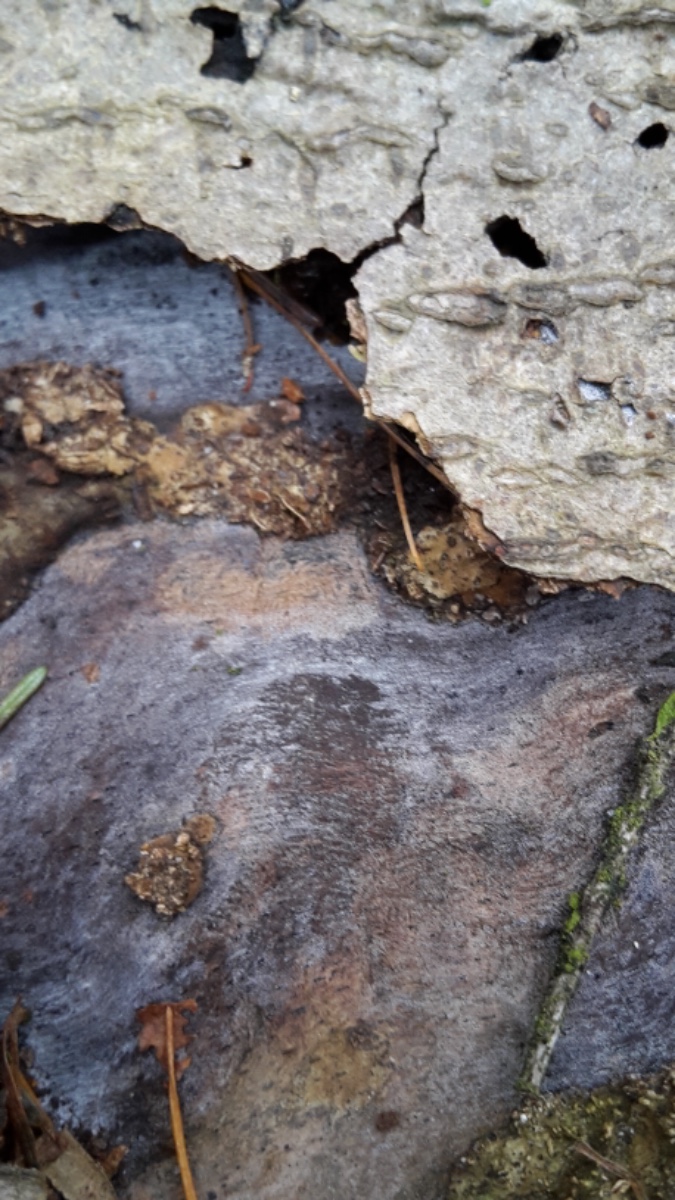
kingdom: Fungi
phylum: Basidiomycota
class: Tremellomycetes
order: Tremellales
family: Exidiaceae
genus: Exidiopsis
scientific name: Exidiopsis effusa
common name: smuk bævrehinde
